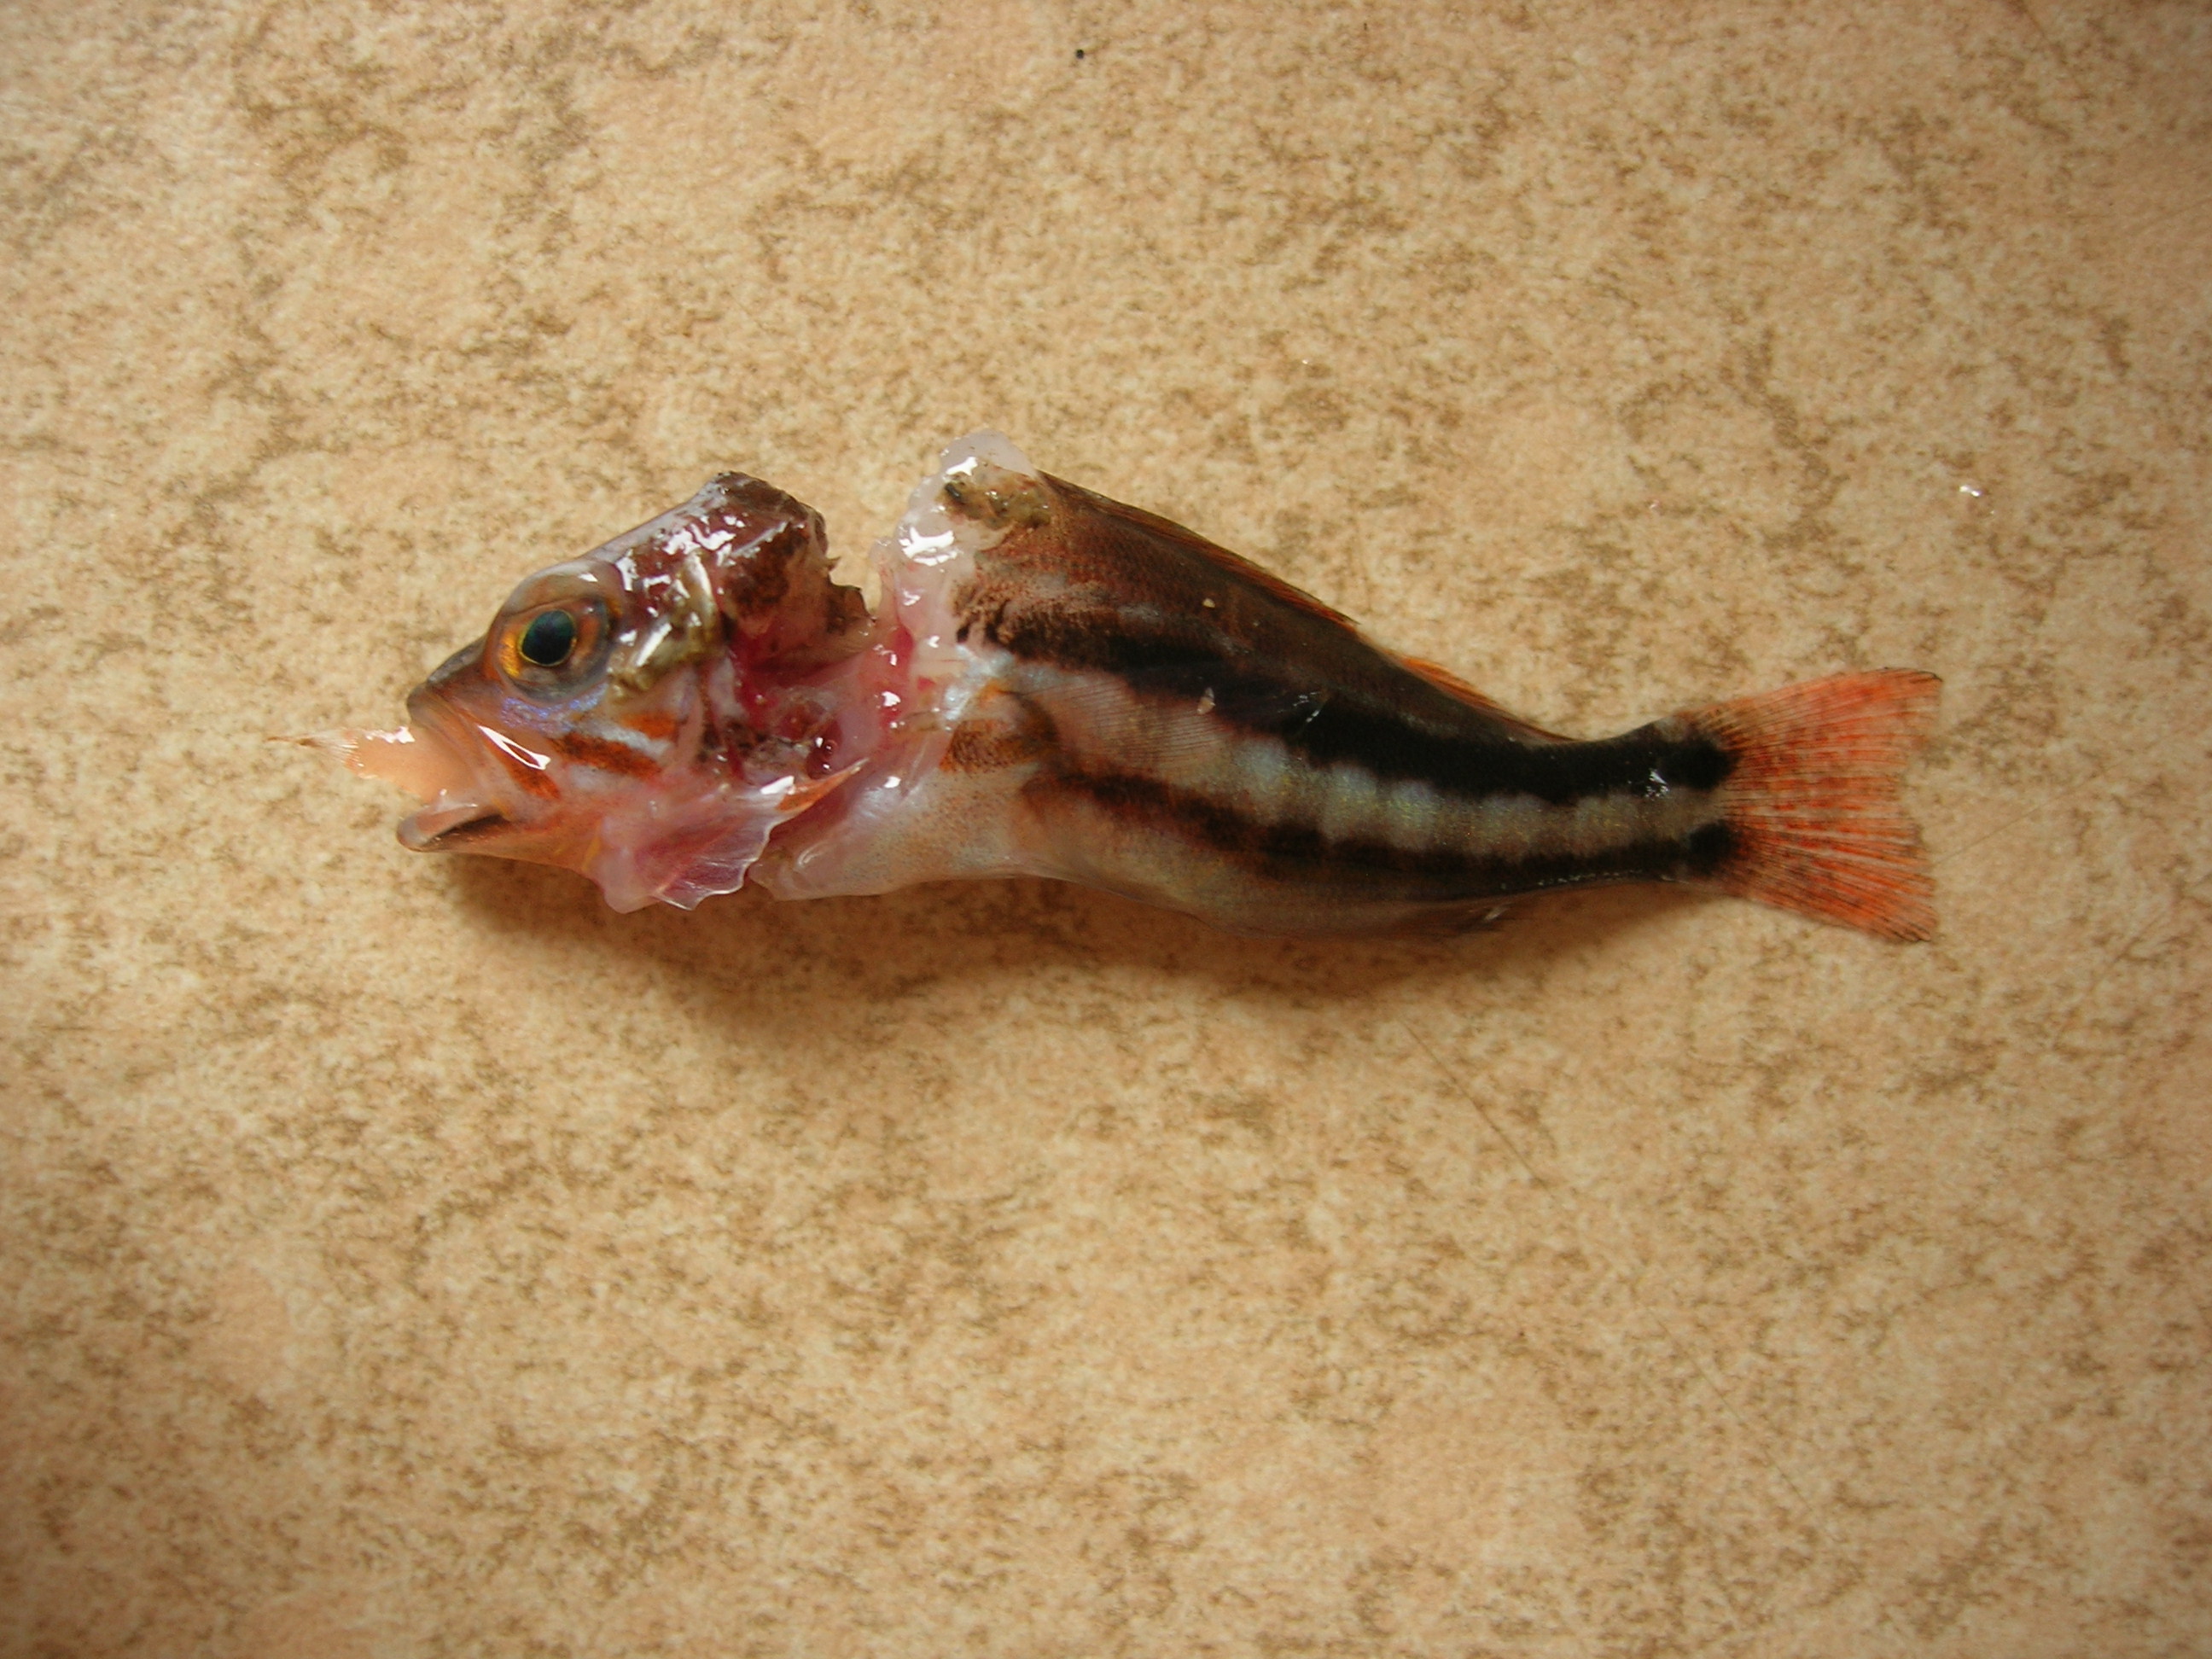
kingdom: Animalia
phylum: Chordata
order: Perciformes
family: Serranidae
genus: Serranus
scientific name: Serranus cabrilla
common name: Comber
